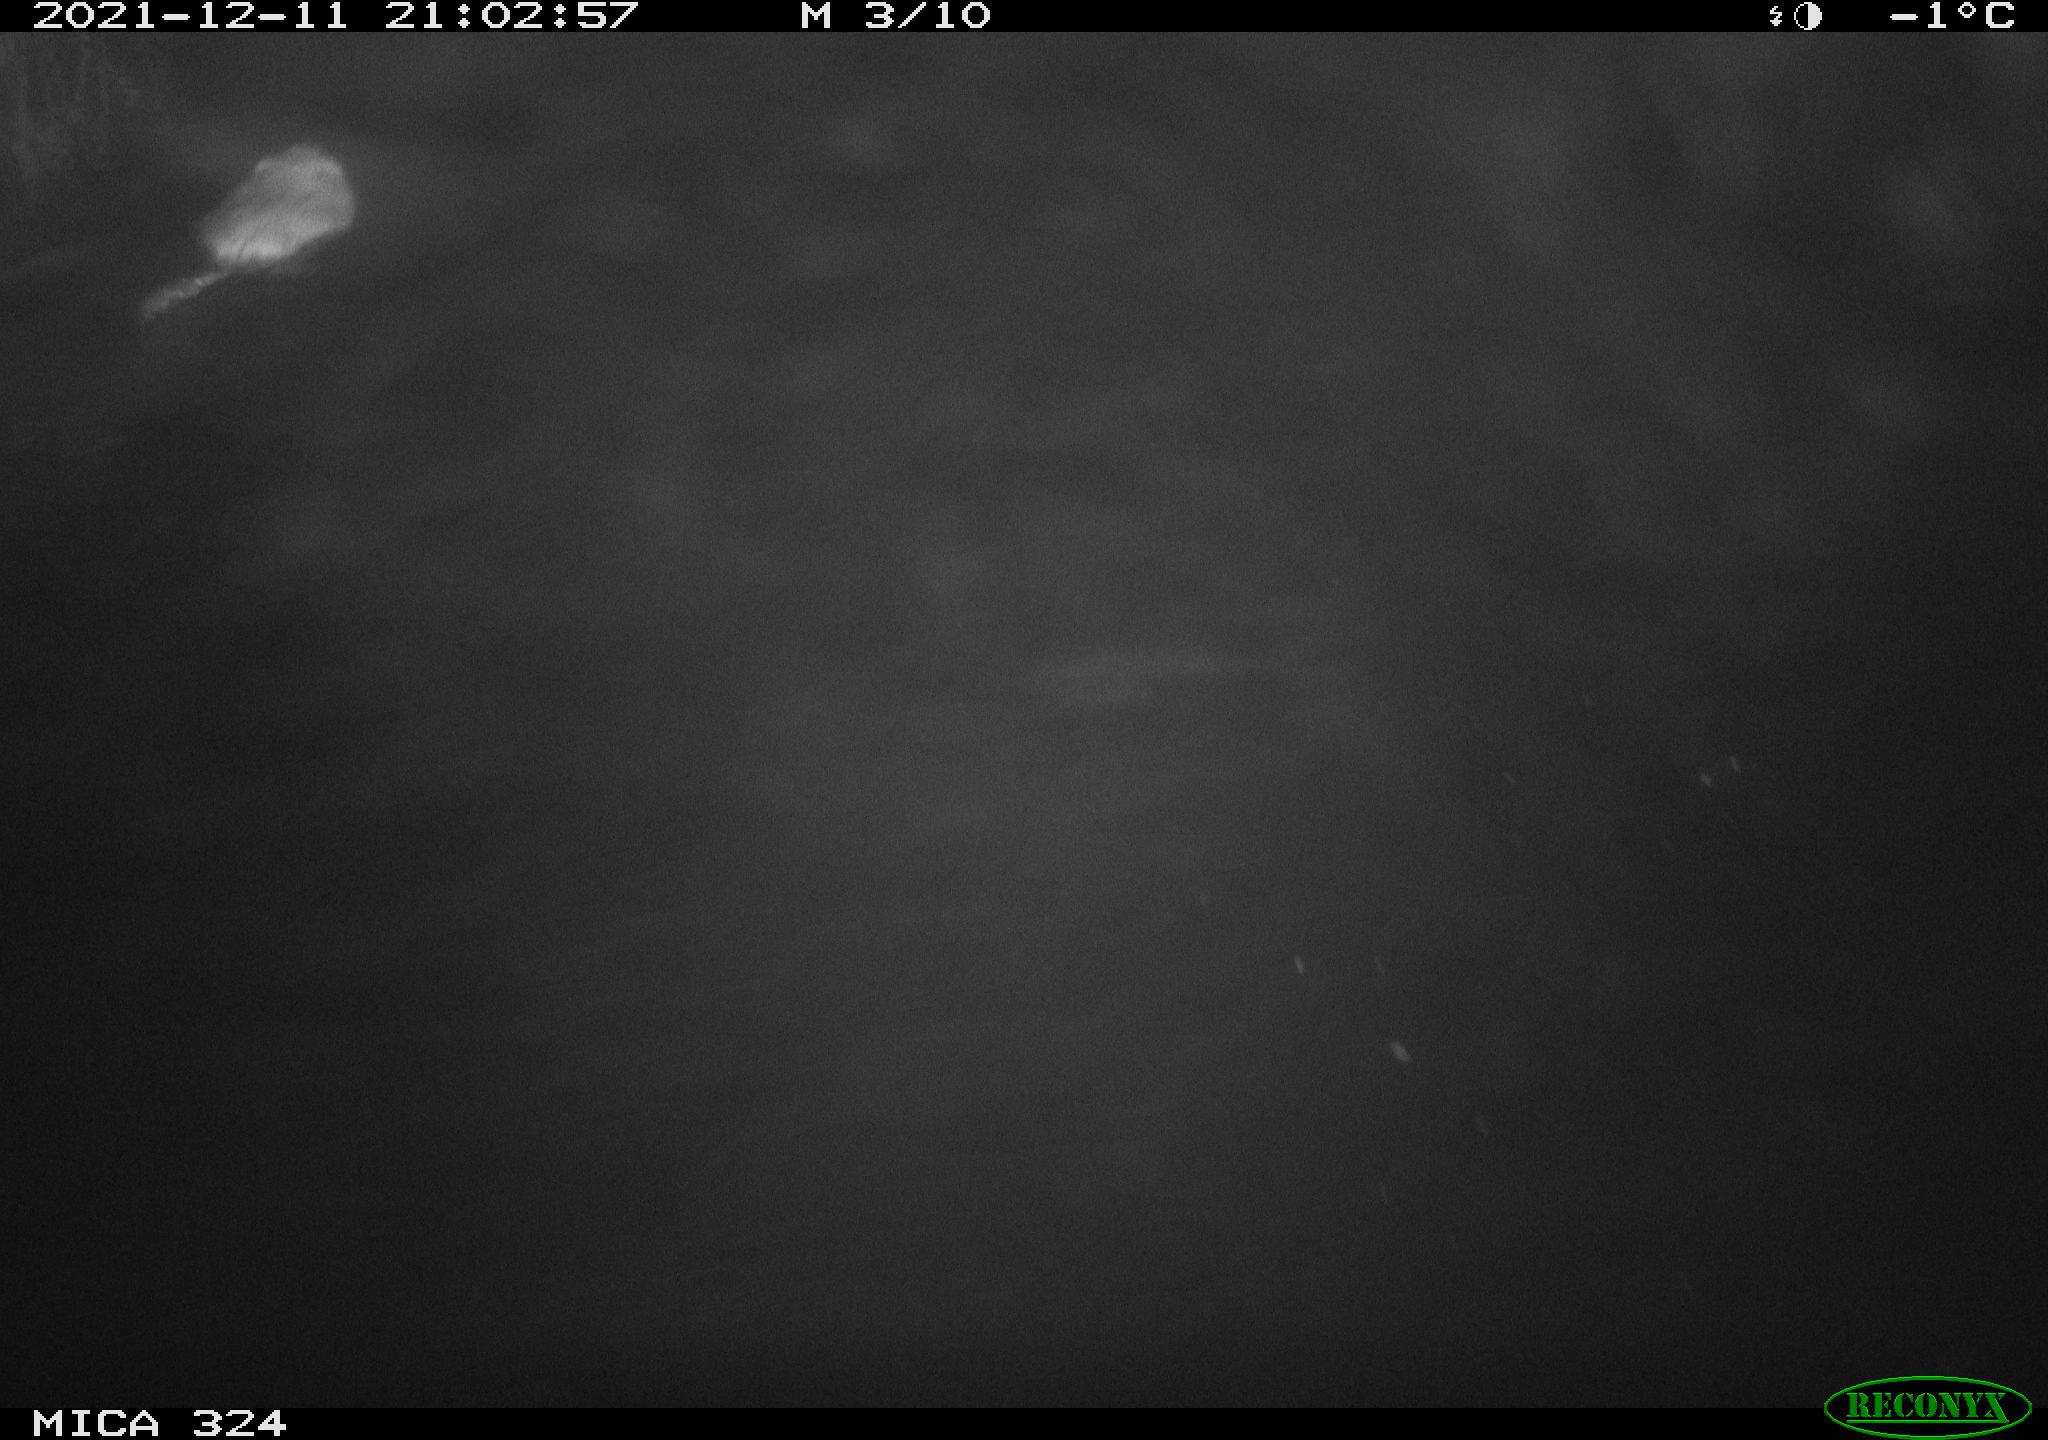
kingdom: Animalia
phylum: Chordata
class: Mammalia
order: Rodentia
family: Cricetidae
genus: Ondatra
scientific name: Ondatra zibethicus
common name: Muskrat
